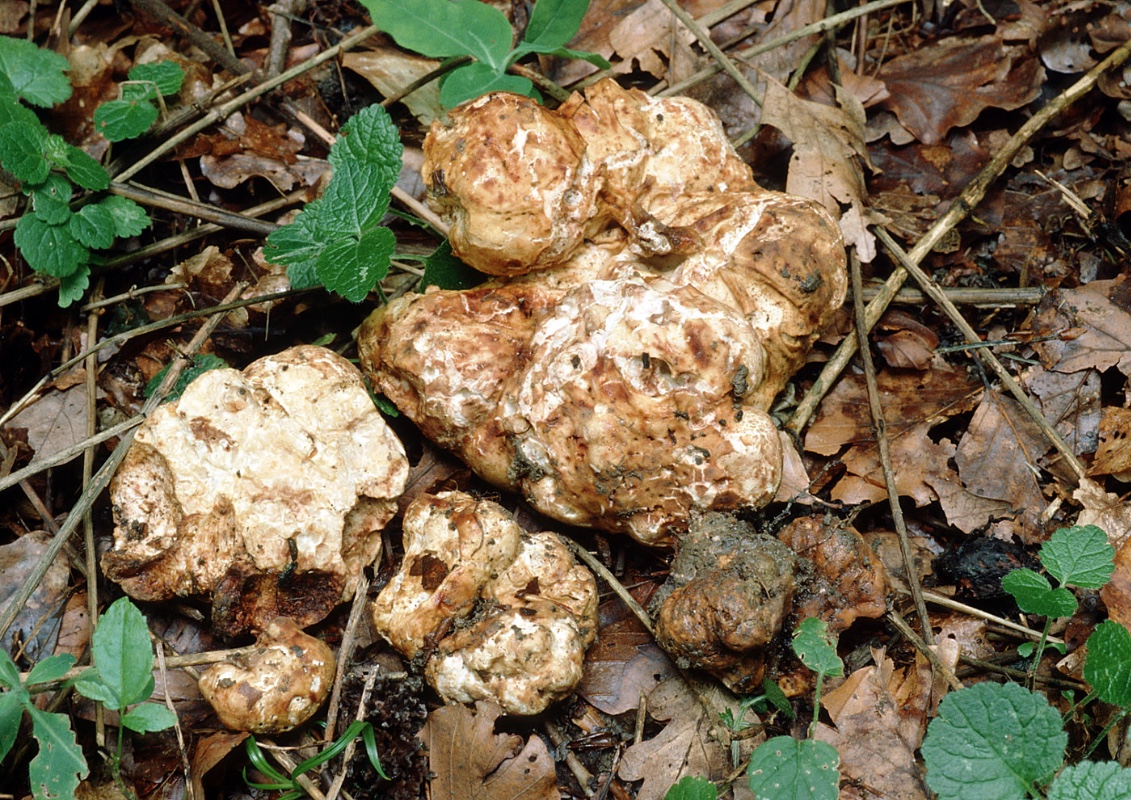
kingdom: Fungi
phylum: Ascomycota
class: Pezizomycetes
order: Pezizales
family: Tuberaceae
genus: Choiromyces
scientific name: Choiromyces venosus
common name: kartoffeltrøffel
